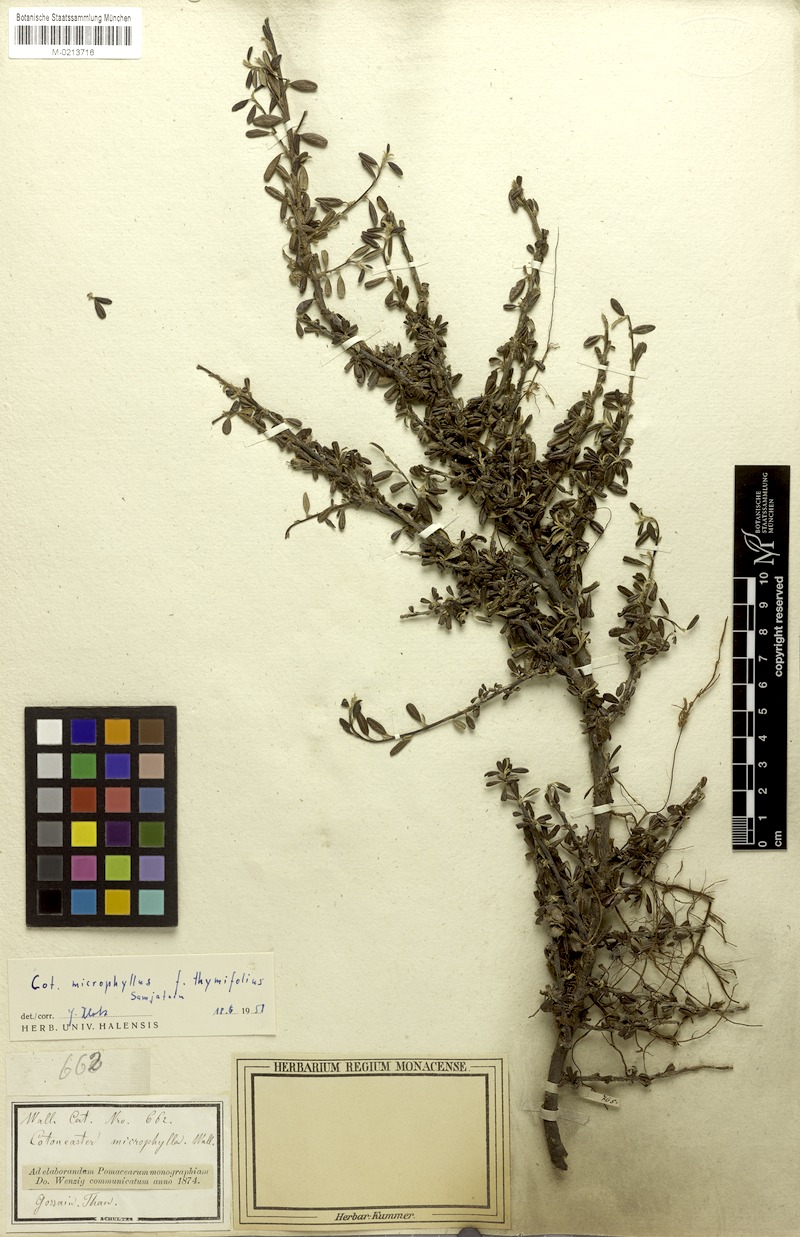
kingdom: Plantae
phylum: Tracheophyta
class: Magnoliopsida
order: Rosales
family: Rosaceae
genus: Cotoneaster
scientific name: Cotoneaster integrifolius
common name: Entire-leaved cotoneaster
